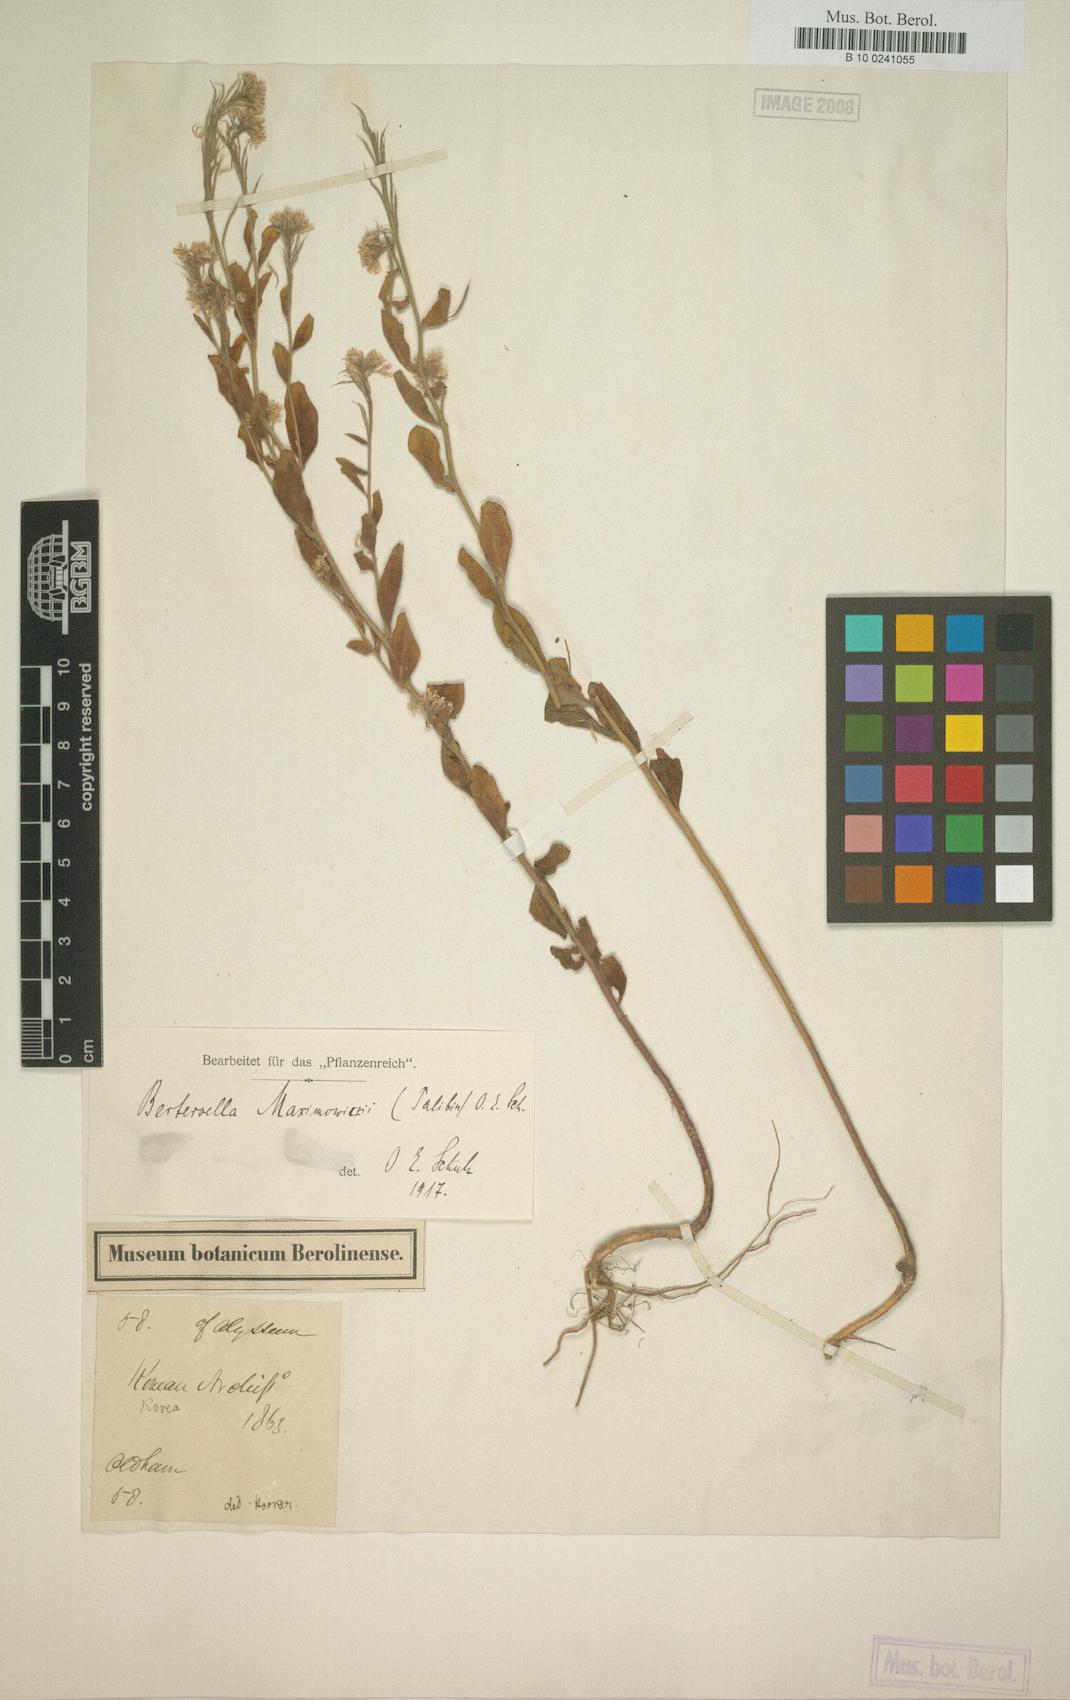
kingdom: Plantae
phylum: Tracheophyta
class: Magnoliopsida
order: Brassicales
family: Brassicaceae
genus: Stevenia
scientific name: Stevenia maximowiczii
